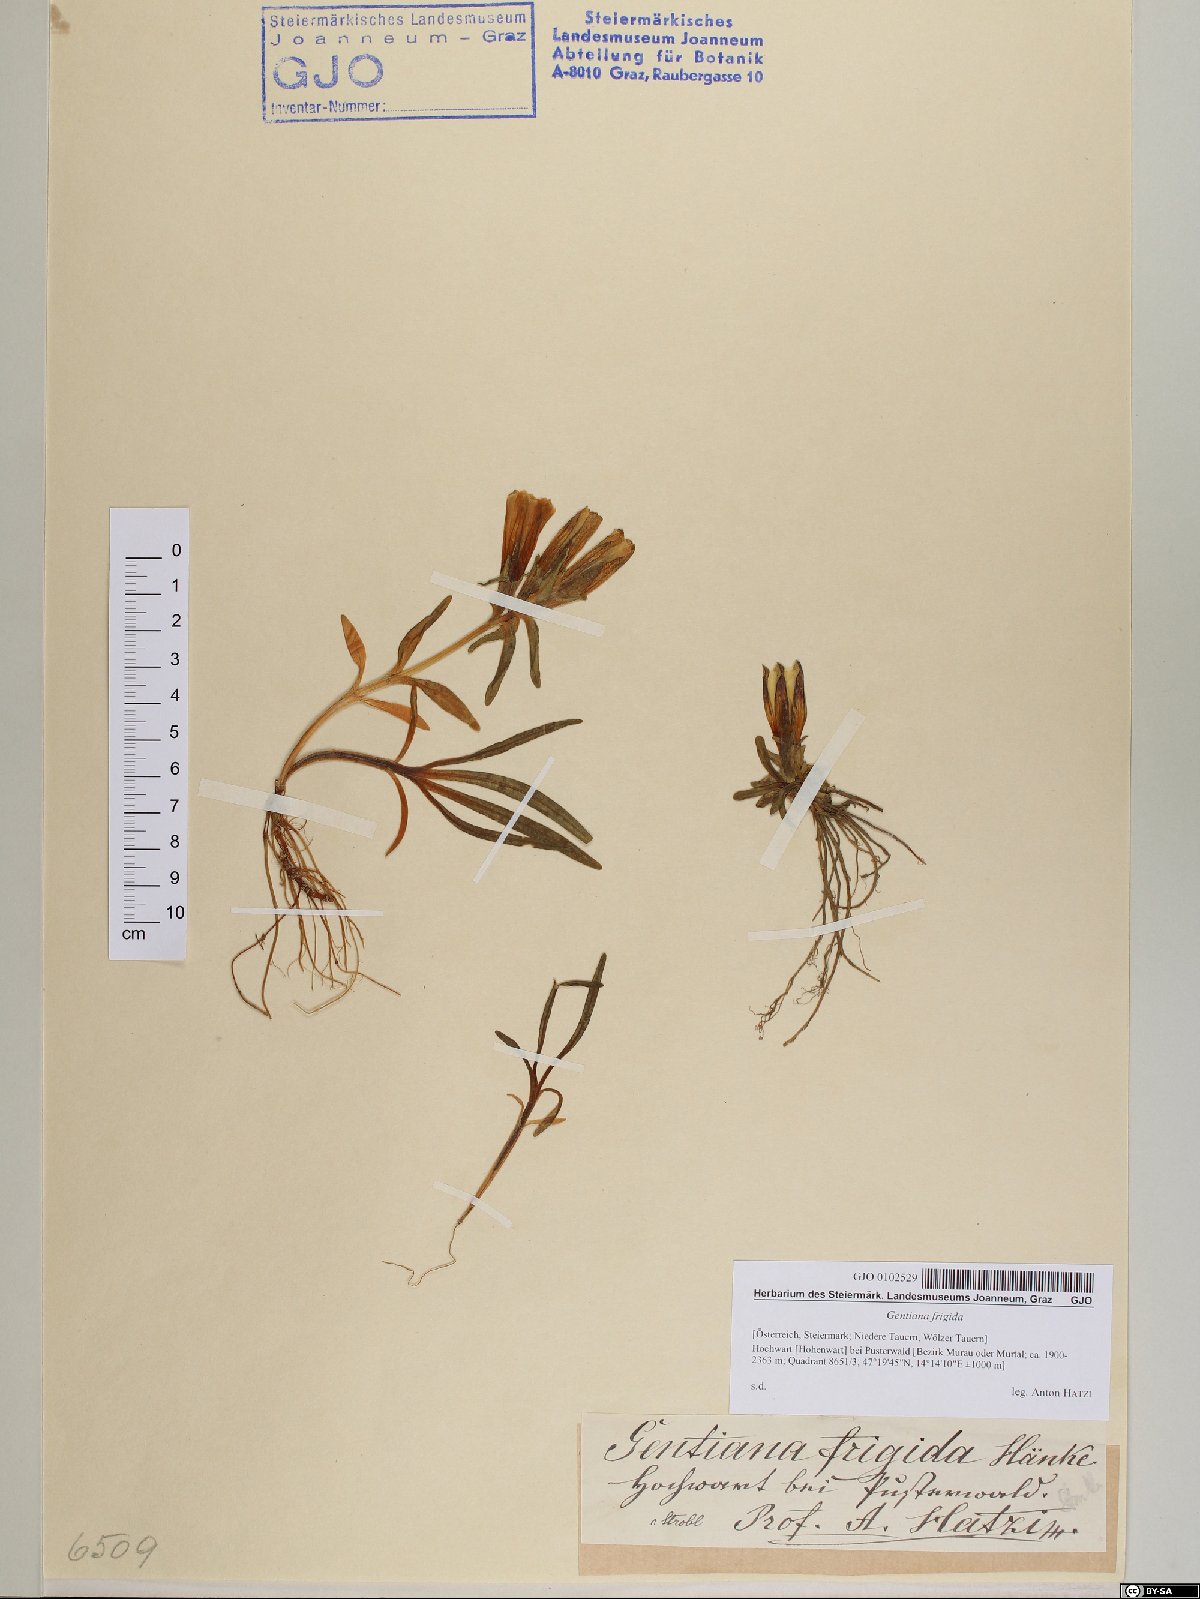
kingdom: Plantae
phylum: Tracheophyta
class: Magnoliopsida
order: Gentianales
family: Gentianaceae
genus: Gentiana
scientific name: Gentiana frigida
